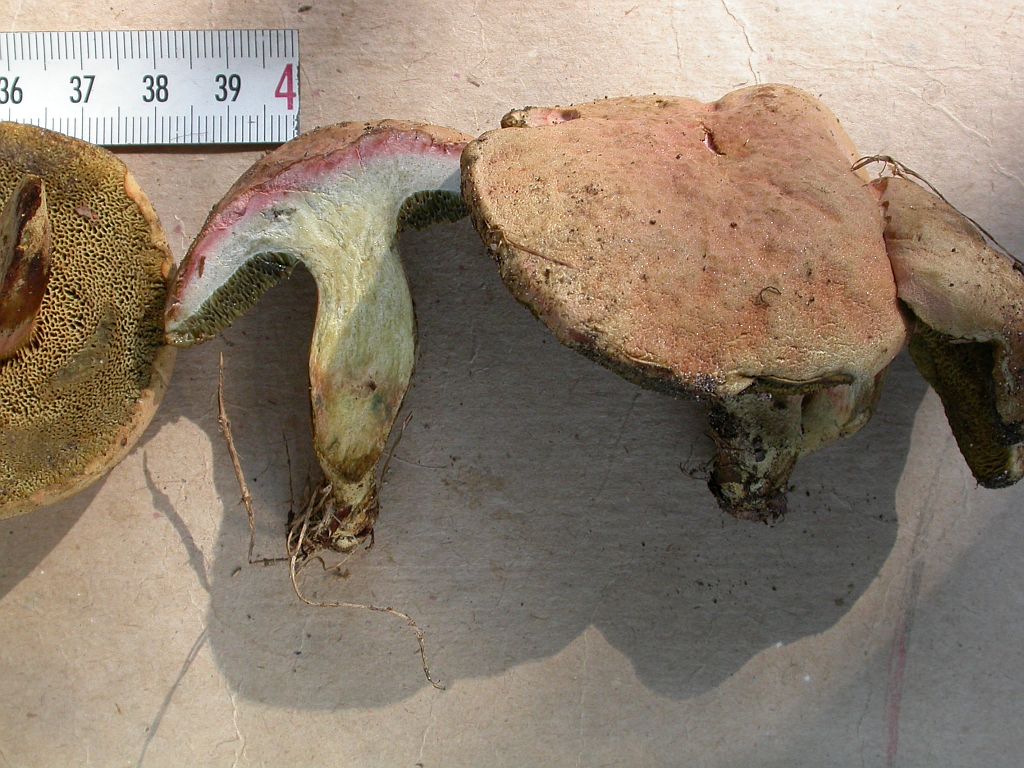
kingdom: Fungi
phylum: Basidiomycota
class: Agaricomycetes
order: Boletales
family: Boletaceae
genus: Hortiboletus
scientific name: Hortiboletus bubalinus
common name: aurora-rørhat
